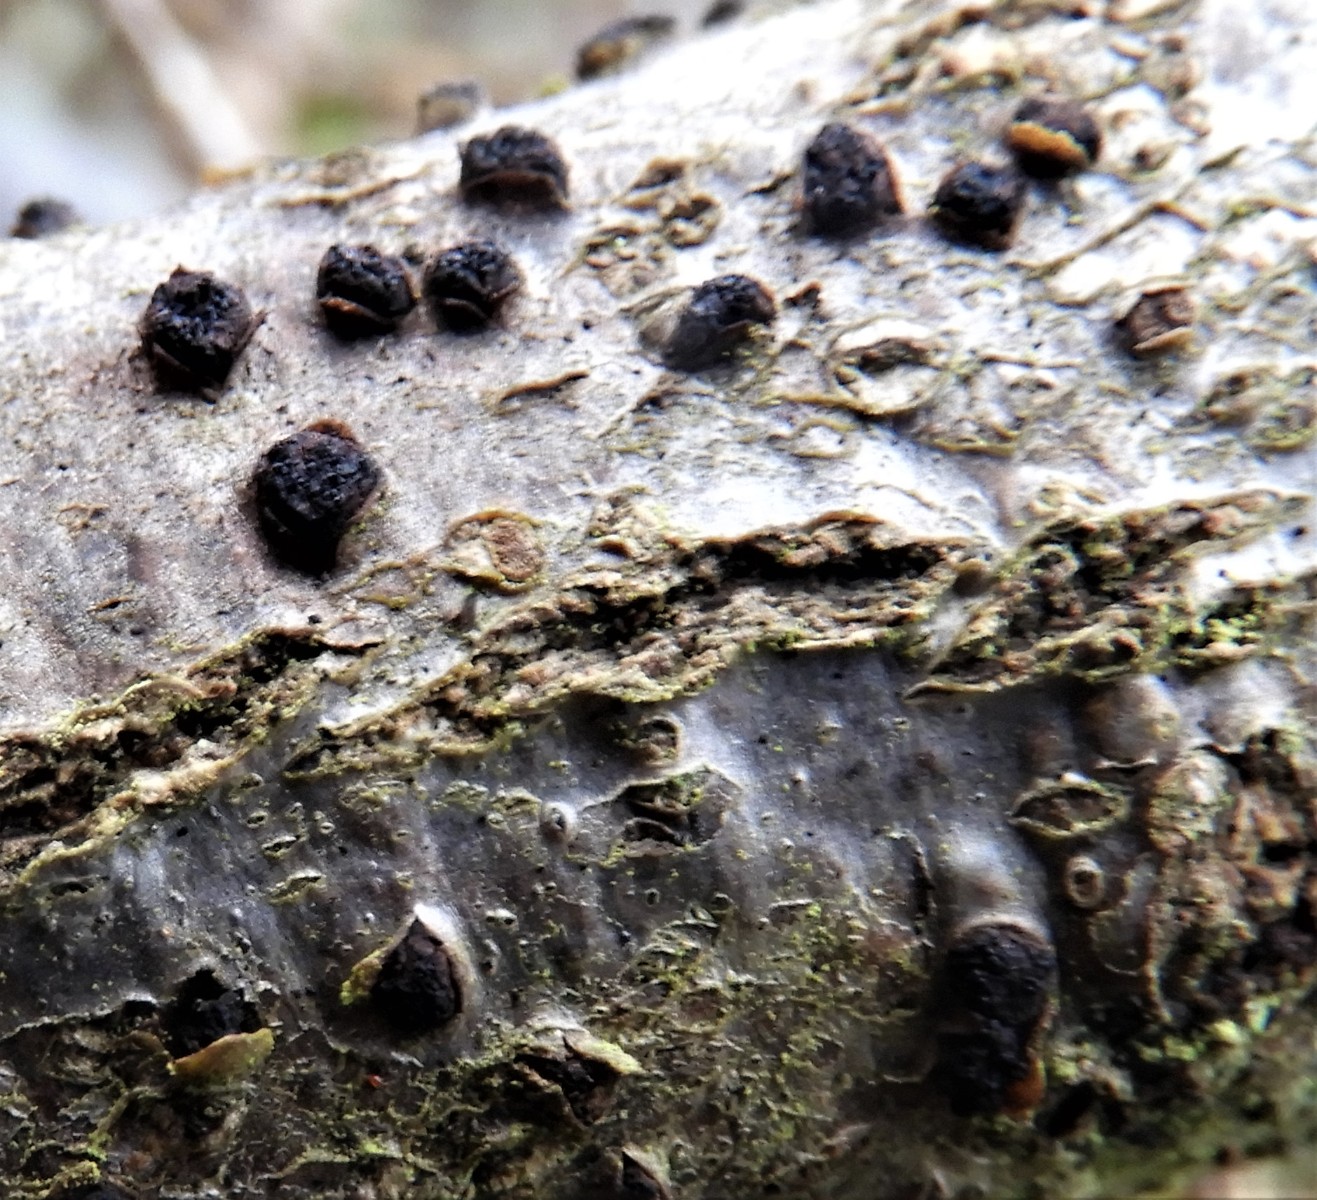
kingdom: Fungi
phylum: Ascomycota
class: Sordariomycetes
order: Xylariales
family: Diatrypaceae
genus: Diatrypella
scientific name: Diatrypella quercina
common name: ege-kulskorpe
